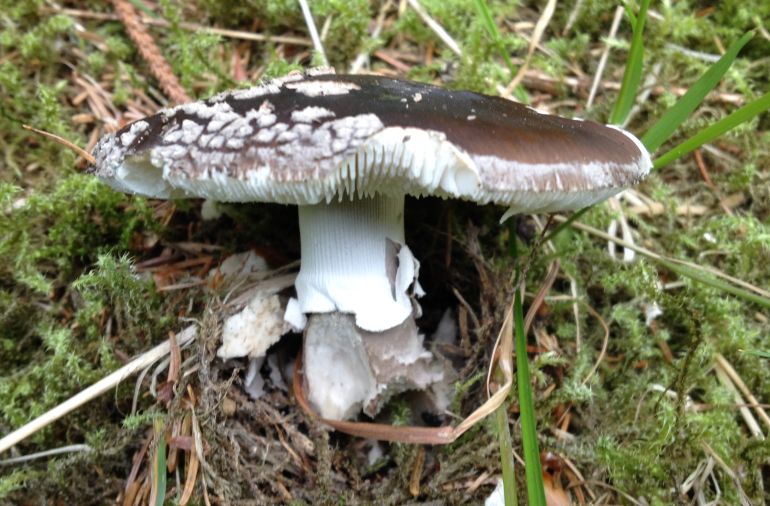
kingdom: Fungi
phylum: Basidiomycota
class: Agaricomycetes
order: Agaricales
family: Amanitaceae
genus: Amanita
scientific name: Amanita
